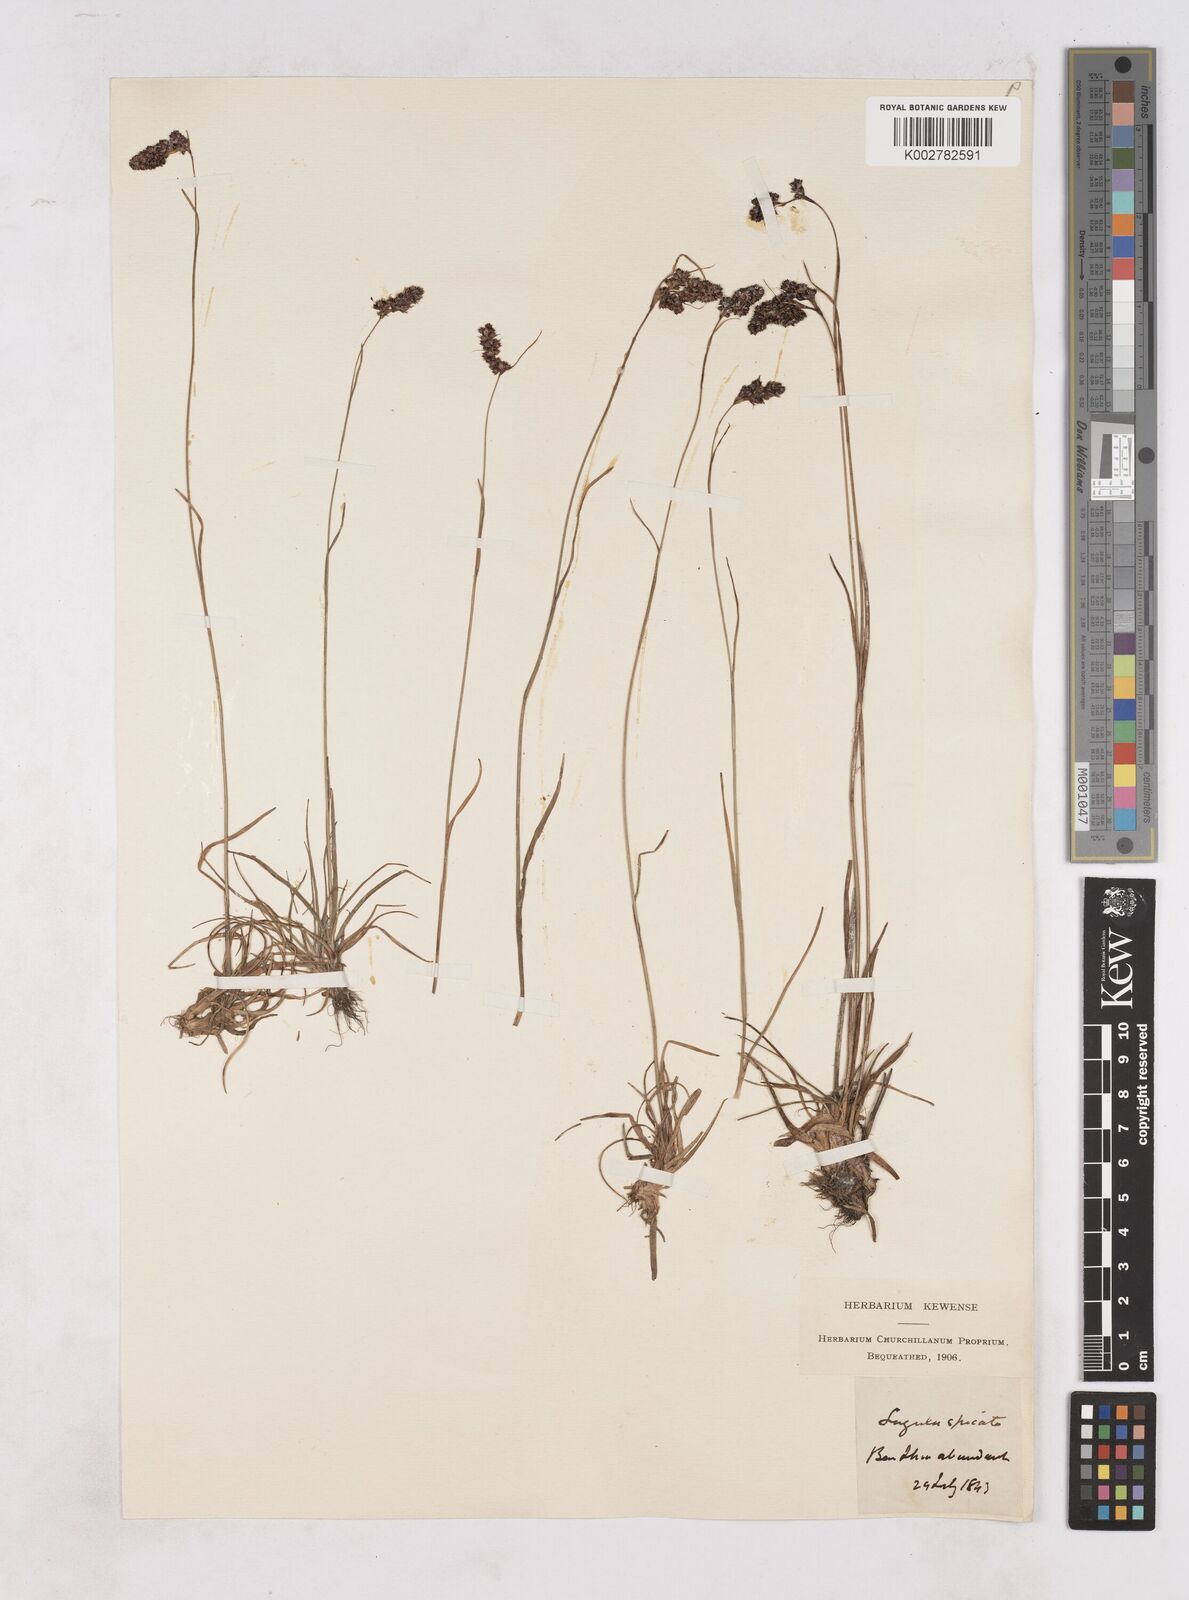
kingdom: Plantae
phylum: Tracheophyta
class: Liliopsida
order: Poales
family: Juncaceae
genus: Luzula
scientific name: Luzula spicata
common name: Spiked wood-rush
